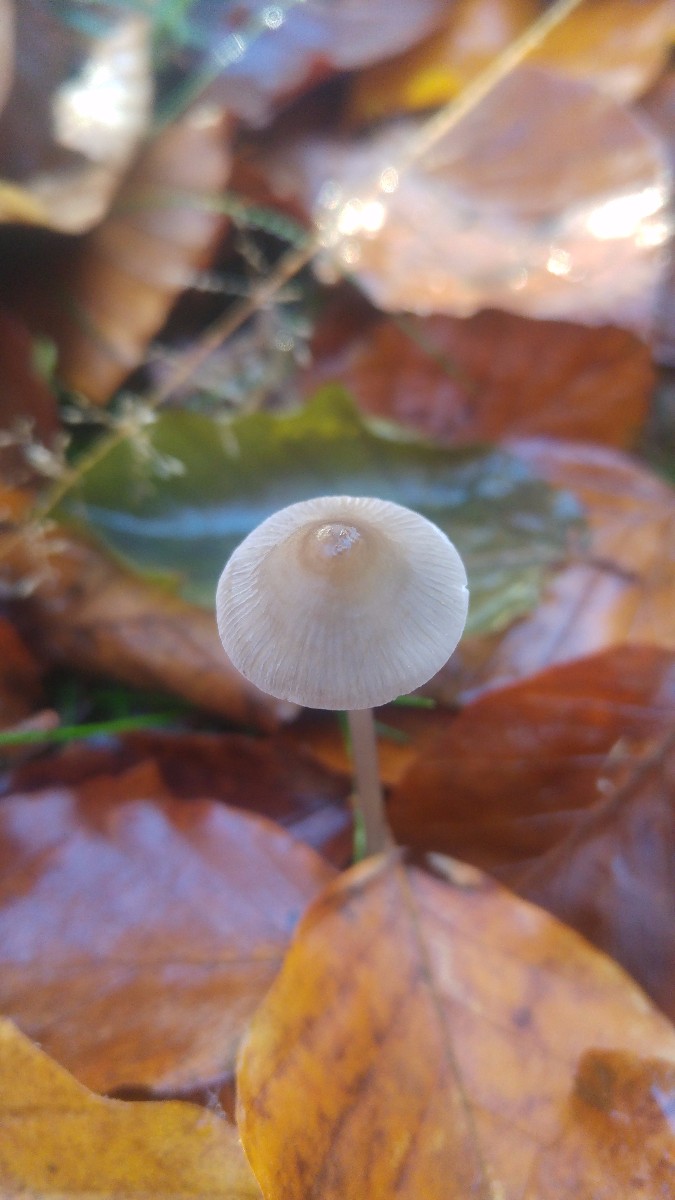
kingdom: Fungi
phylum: Basidiomycota
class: Agaricomycetes
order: Agaricales
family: Mycenaceae
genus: Mycena
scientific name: Mycena vitilis
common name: blankstokket huesvamp
